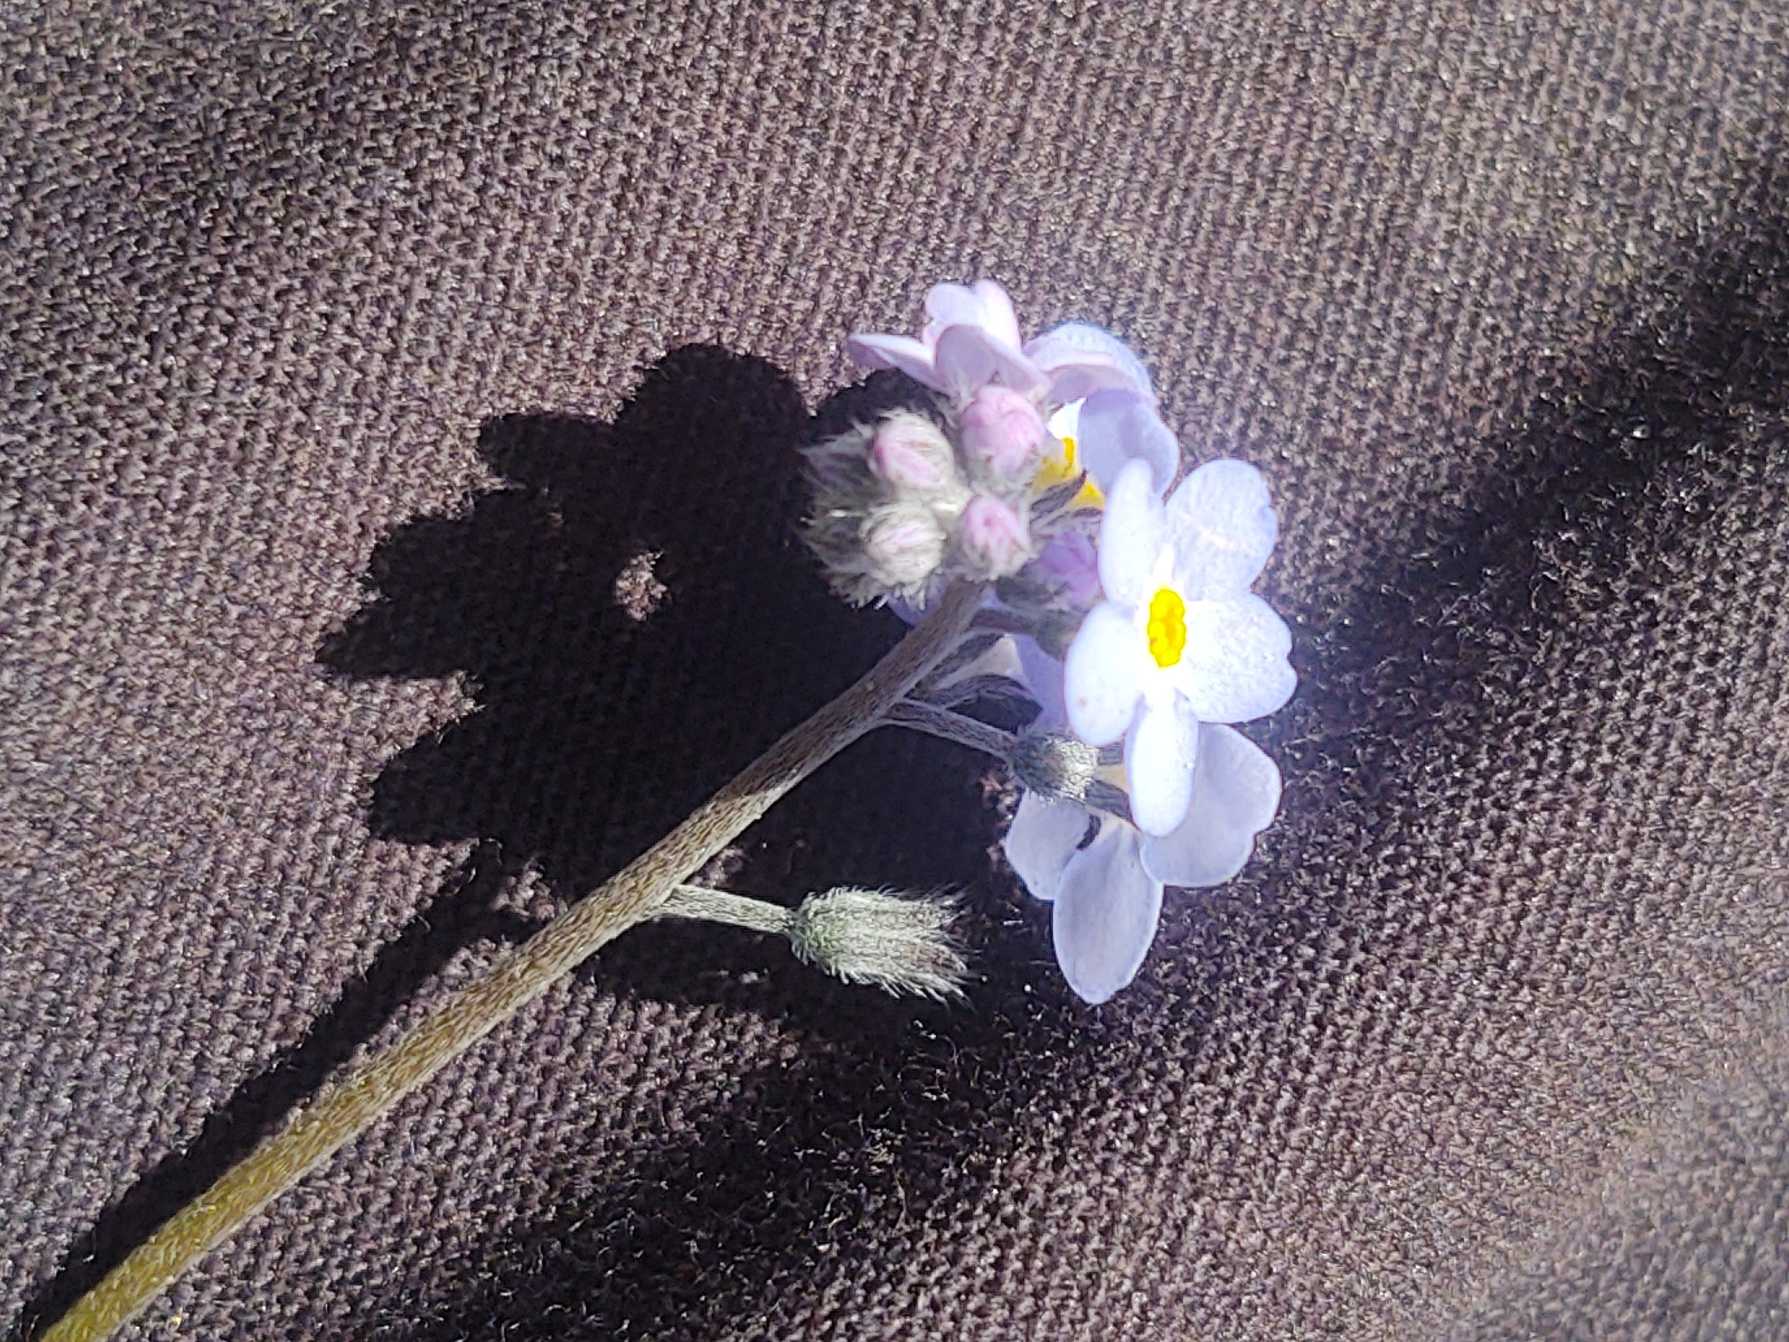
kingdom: Plantae
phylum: Tracheophyta
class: Magnoliopsida
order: Boraginales
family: Boraginaceae
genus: Myosotis
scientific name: Myosotis sylvatica
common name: Skov-forglemmigej
